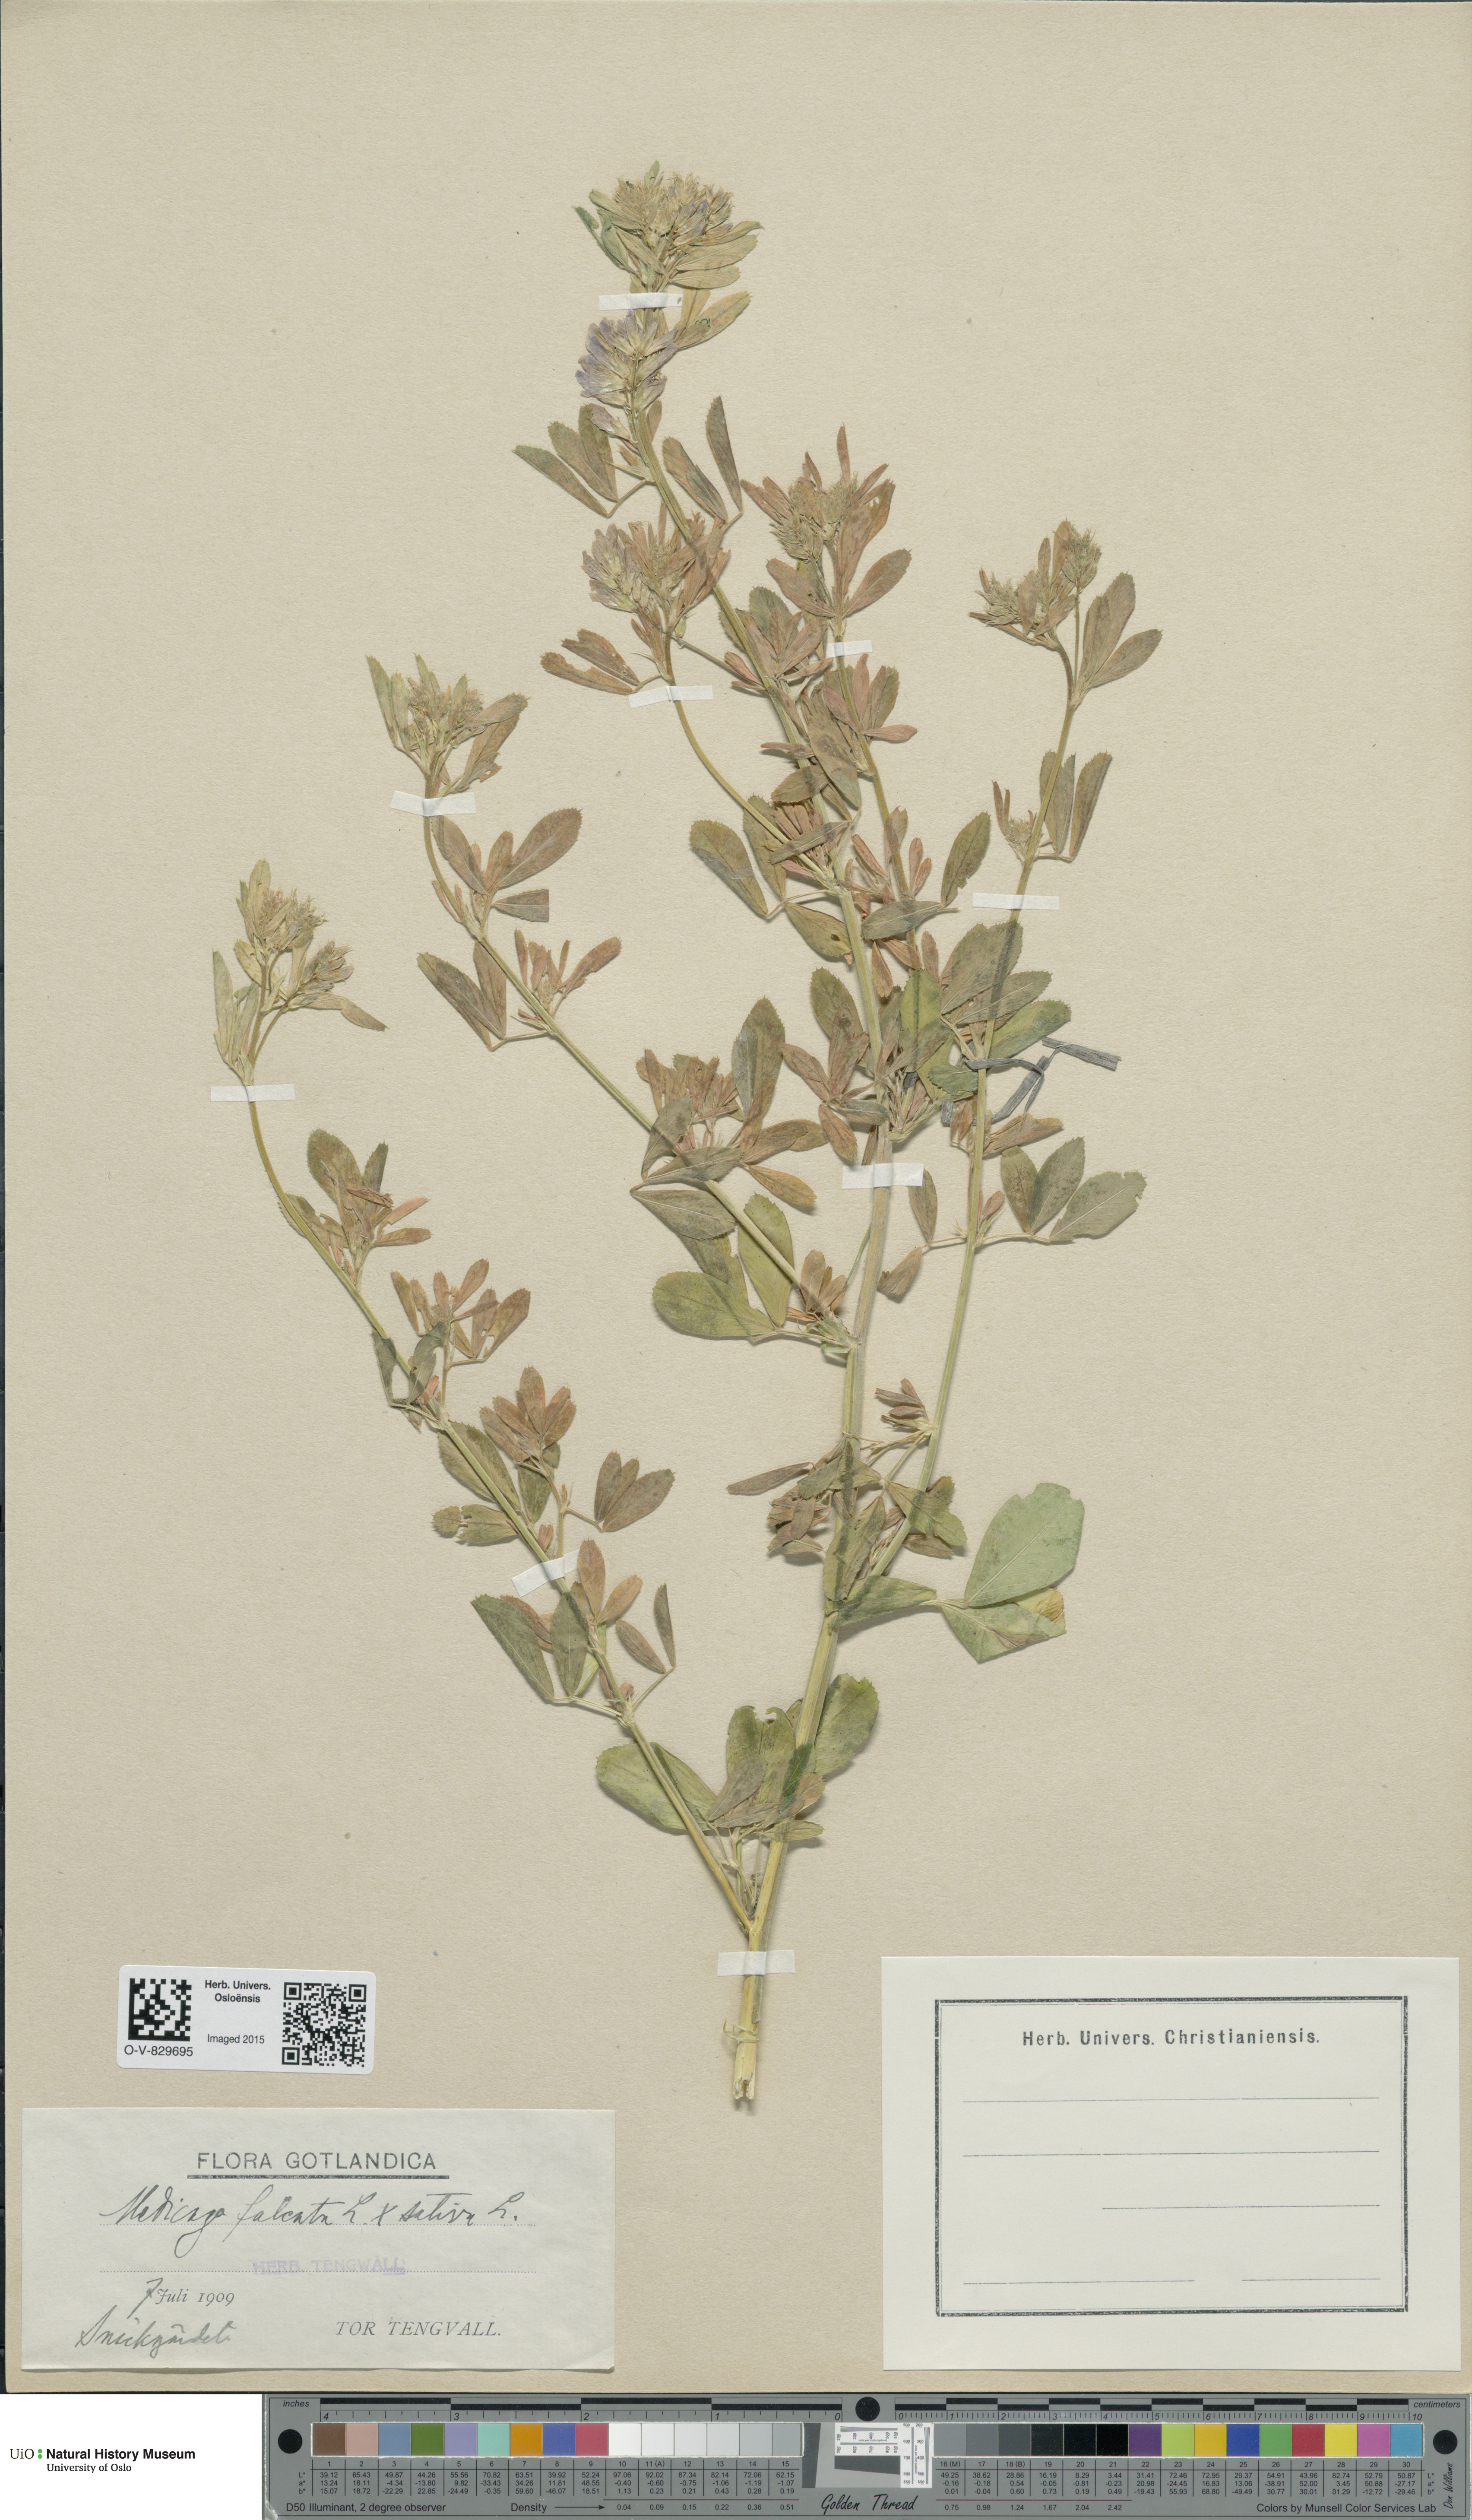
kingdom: Plantae
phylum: Tracheophyta
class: Magnoliopsida
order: Fabales
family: Fabaceae
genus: Medicago
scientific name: Medicago
